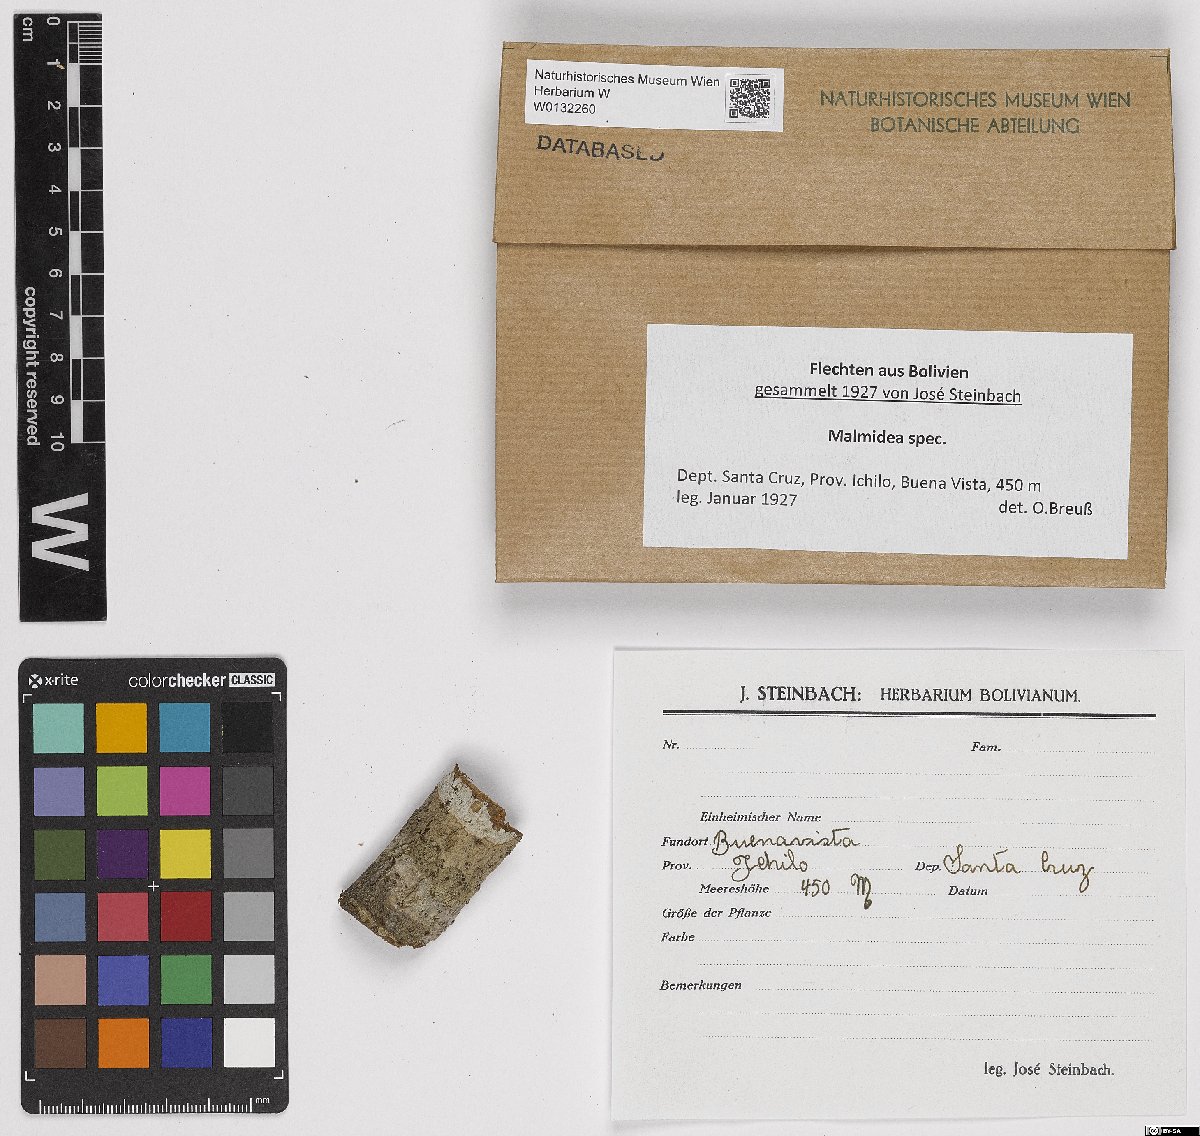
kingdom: Fungi
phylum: Ascomycota
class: Lecanoromycetes
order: Lecanorales
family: Malmideaceae
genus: Malmidea
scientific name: Malmidea
